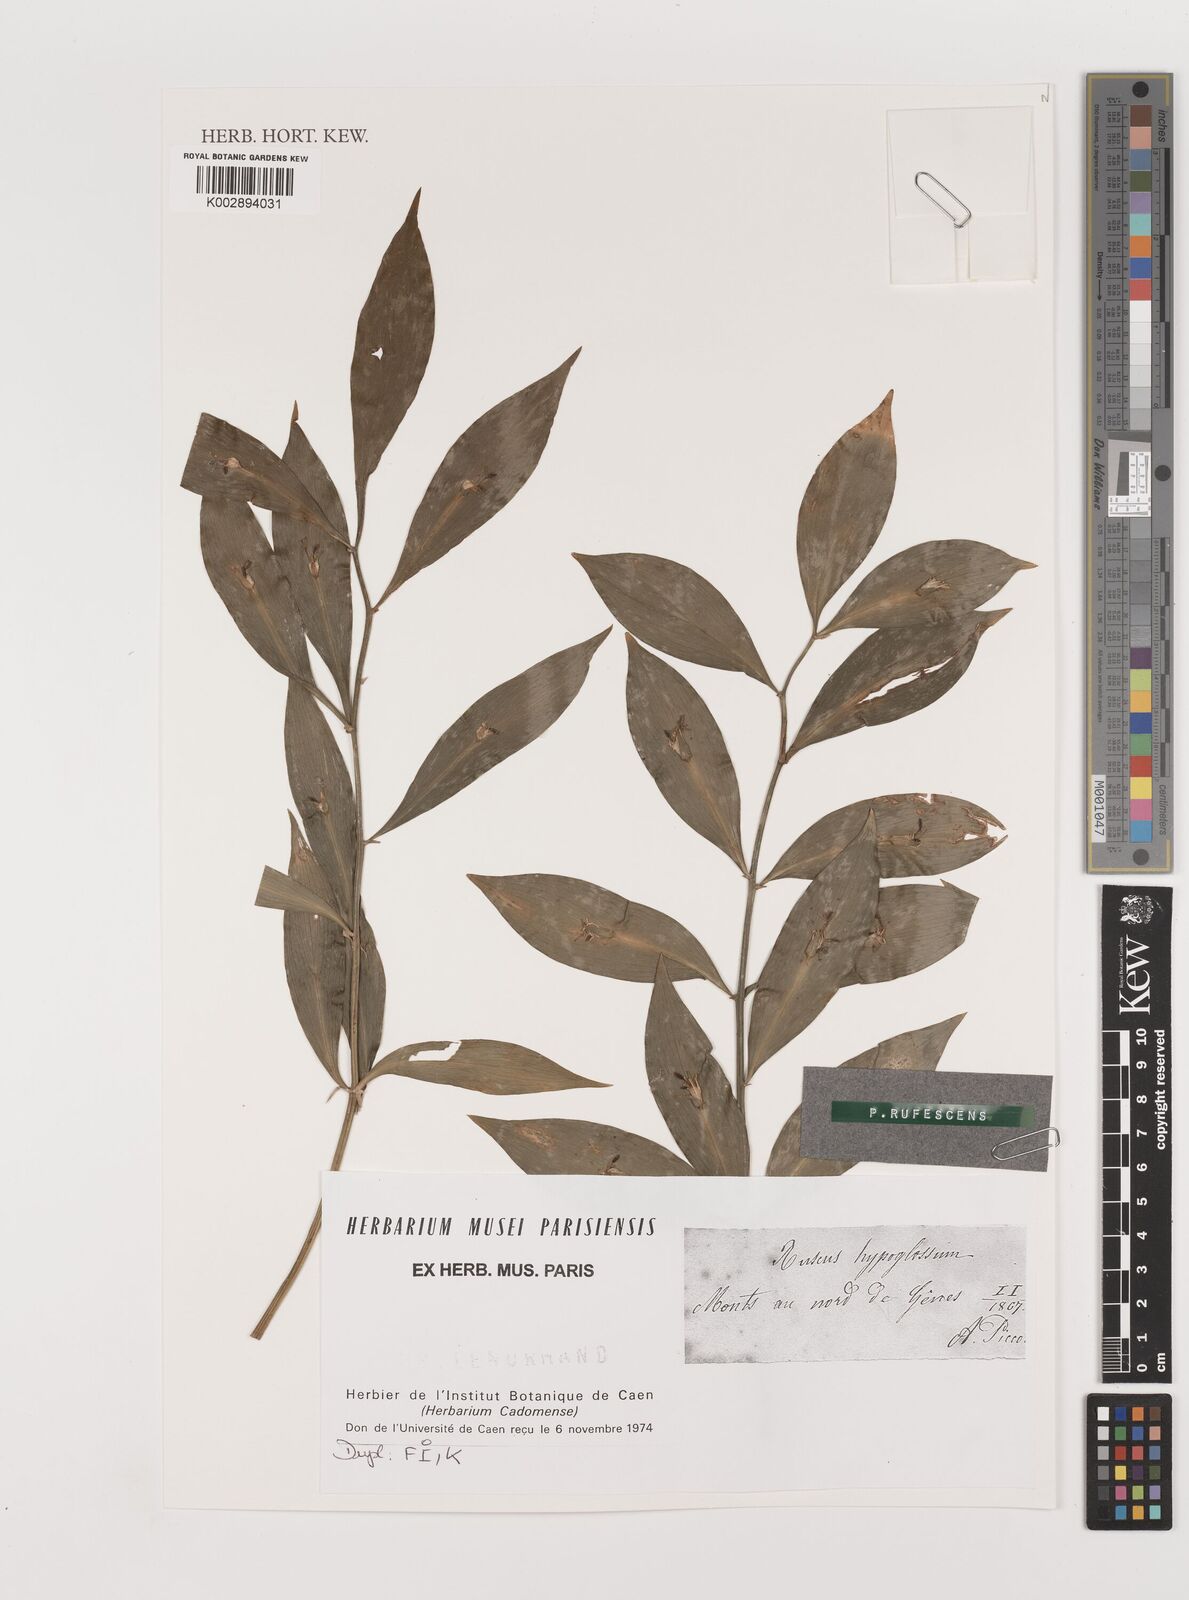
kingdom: Plantae
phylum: Tracheophyta
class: Liliopsida
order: Asparagales
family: Asparagaceae
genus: Ruscus
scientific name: Ruscus hypoglossum
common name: Spineless butcher's-broom
